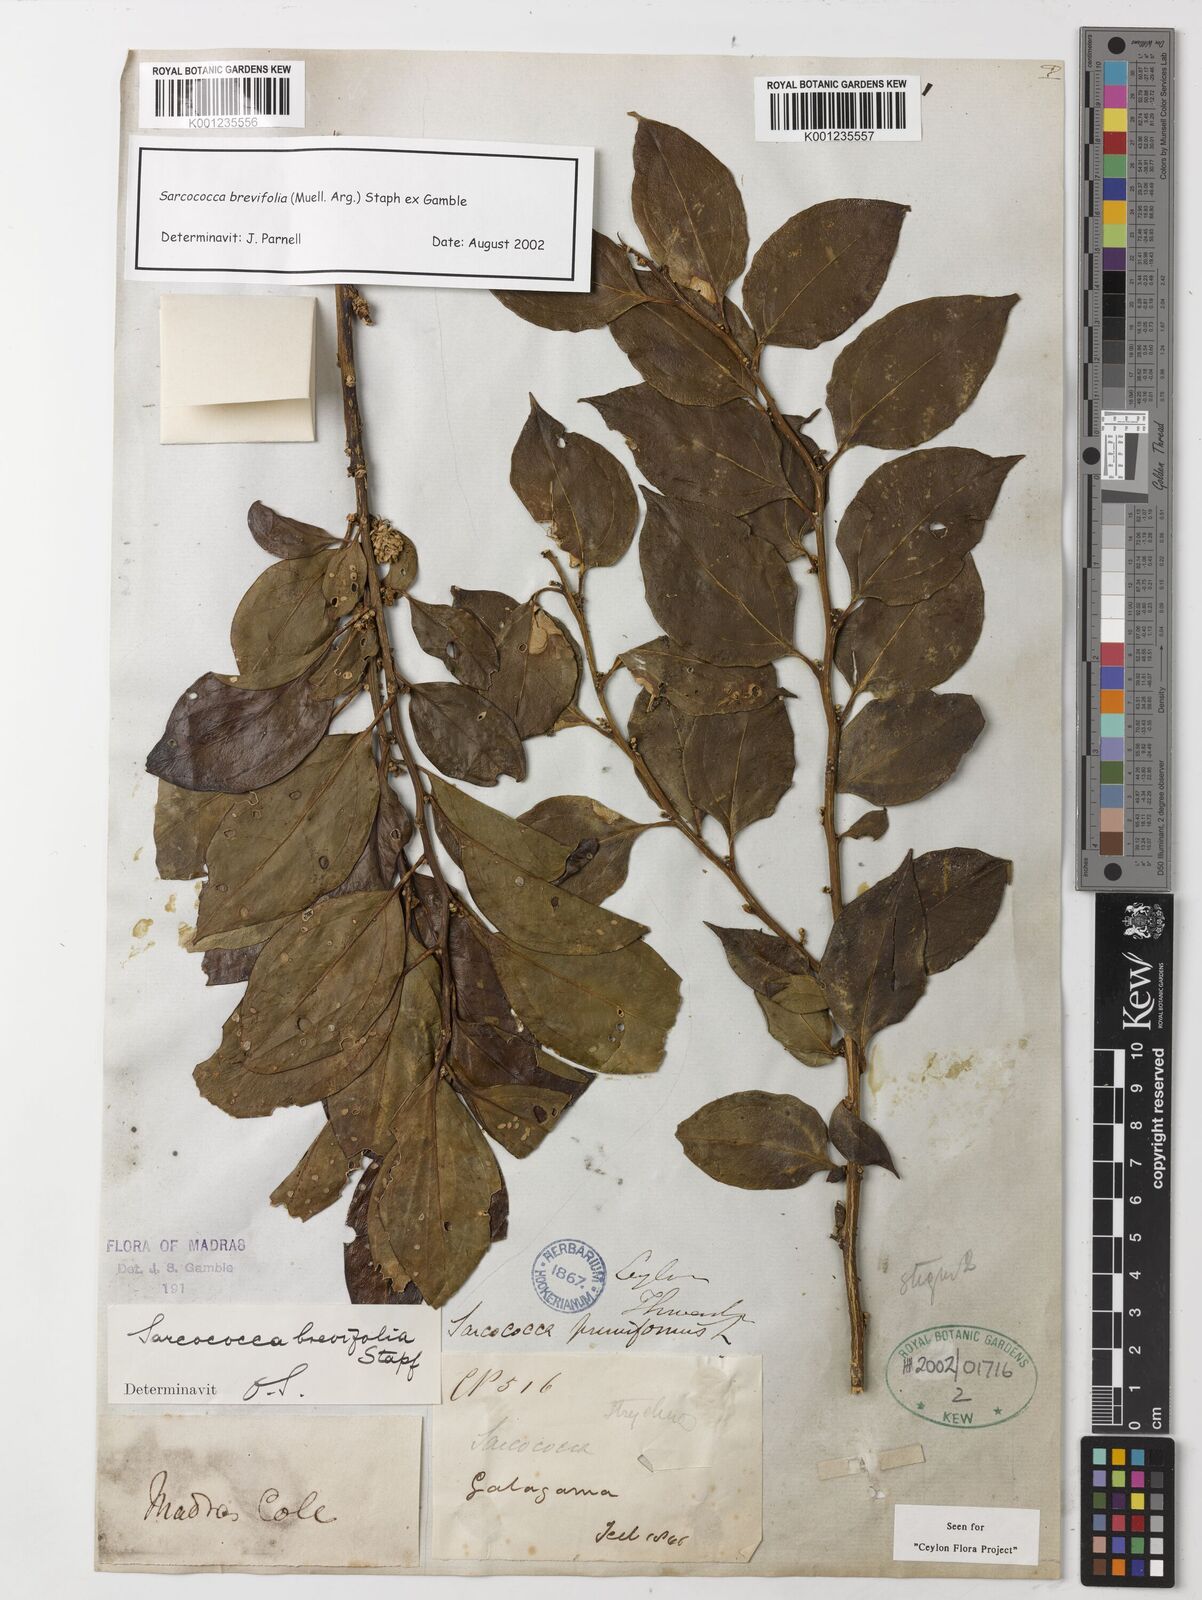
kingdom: Plantae
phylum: Tracheophyta
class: Magnoliopsida
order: Buxales
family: Buxaceae
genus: Sarcococca
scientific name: Sarcococca coriacea
